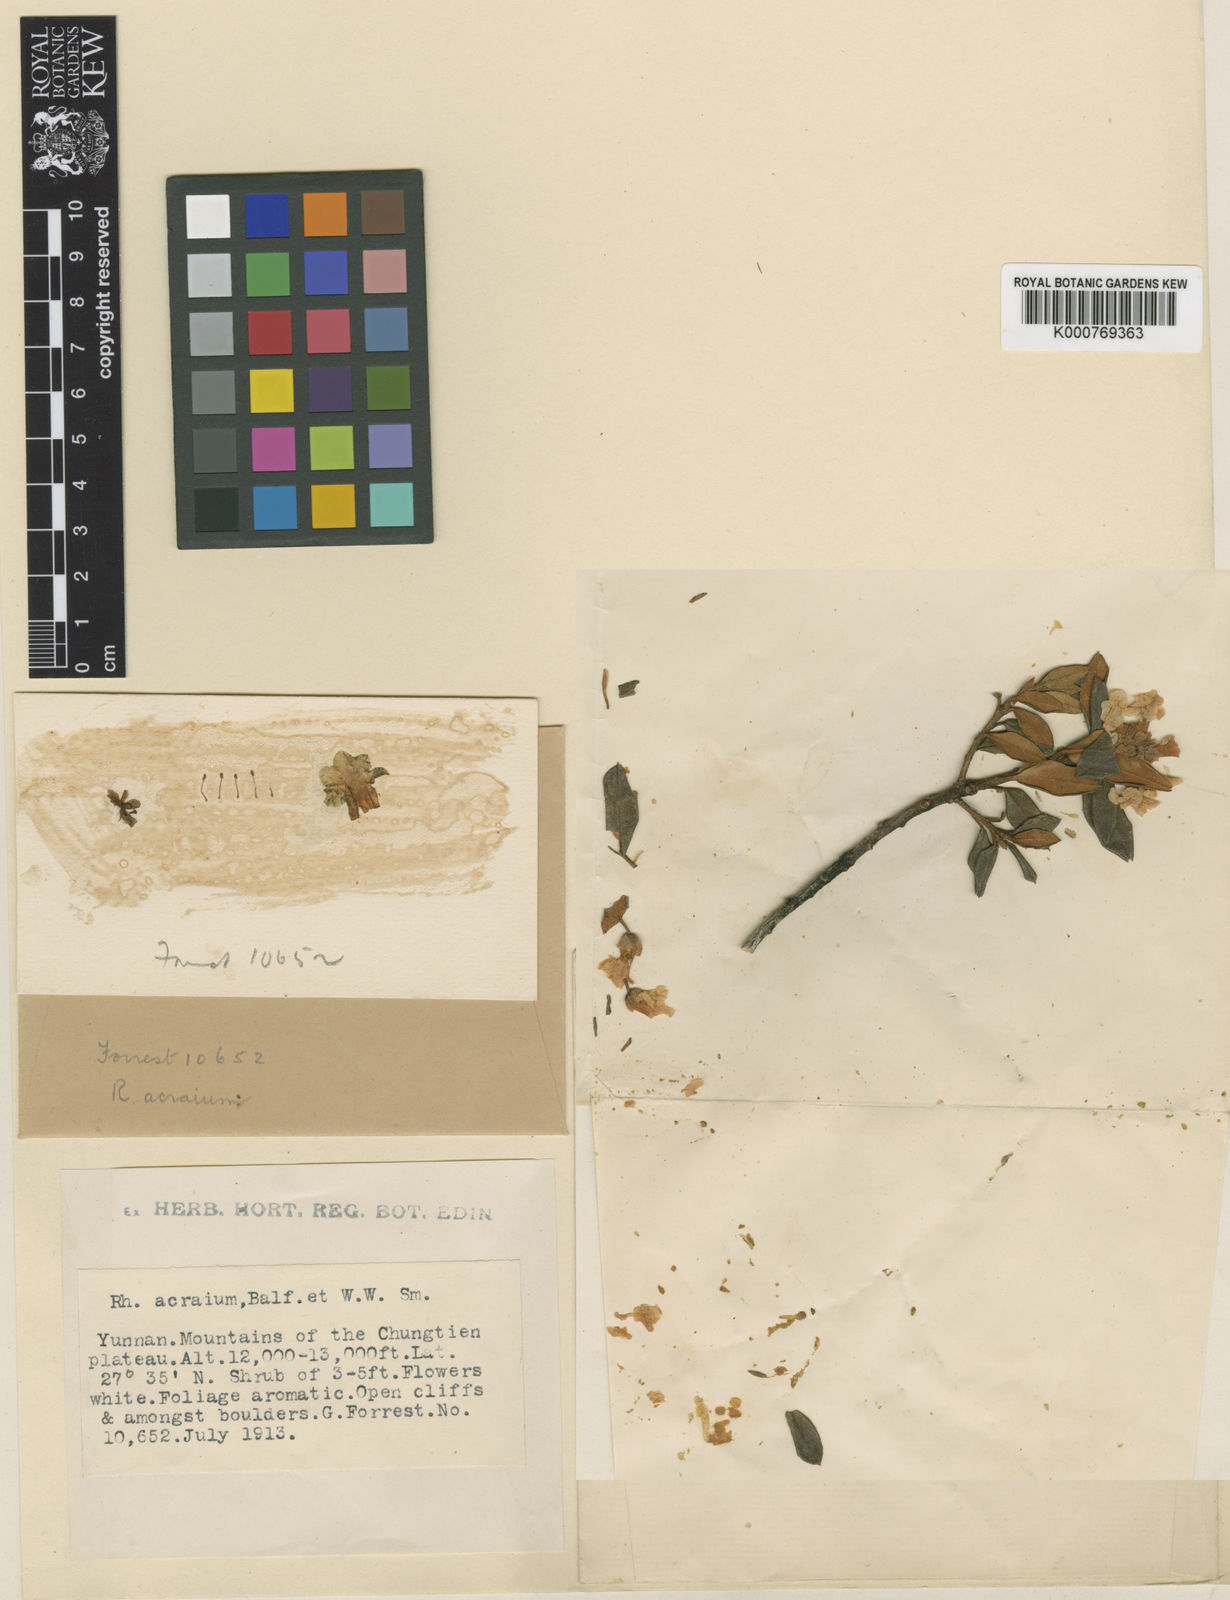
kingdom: Plantae
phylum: Tracheophyta
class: Magnoliopsida
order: Ericales
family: Ericaceae
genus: Rhododendron
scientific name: Rhododendron primuliflorum
